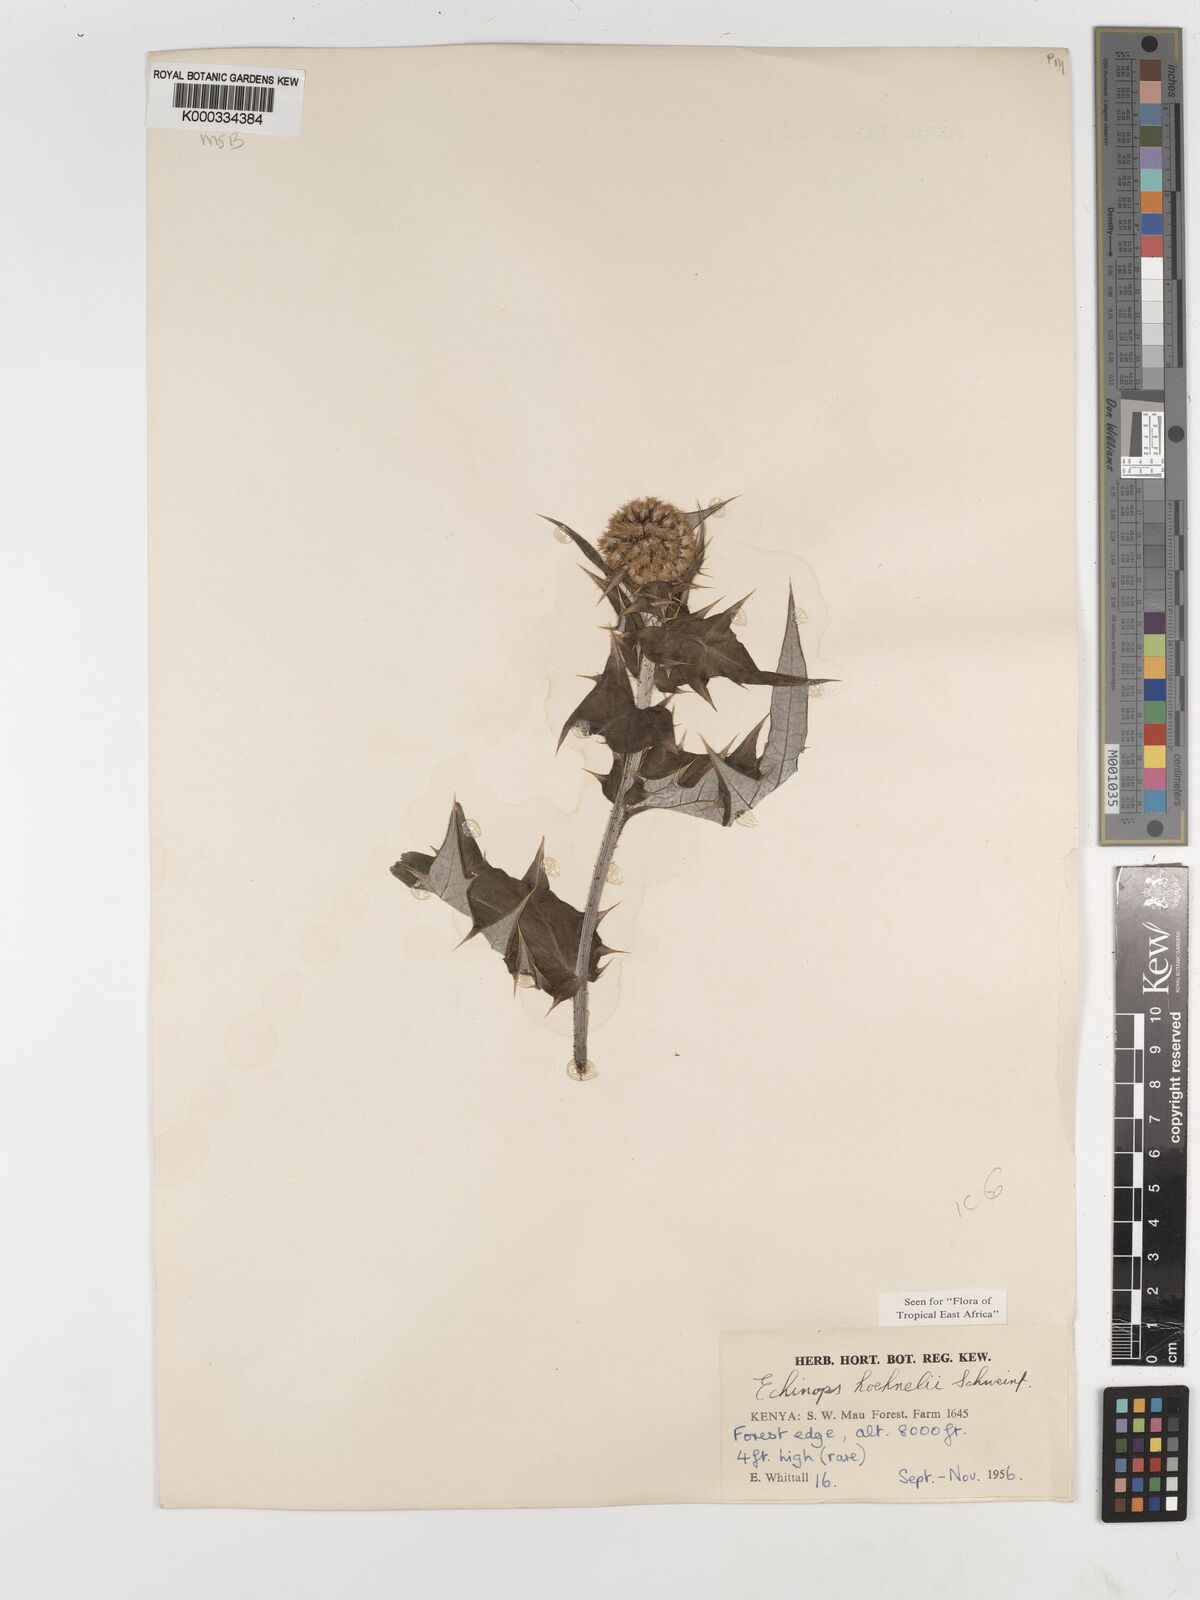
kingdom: Plantae
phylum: Tracheophyta
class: Magnoliopsida
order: Asterales
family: Asteraceae
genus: Echinops
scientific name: Echinops hoehnelii
